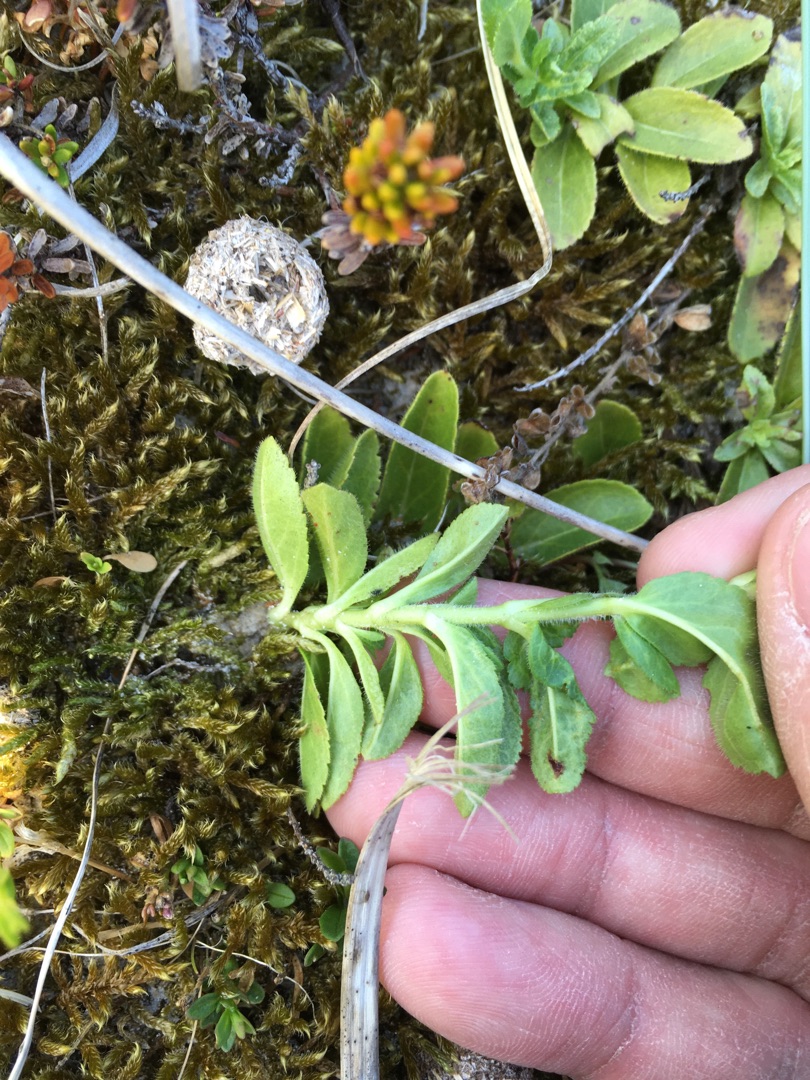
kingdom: Plantae
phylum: Tracheophyta
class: Magnoliopsida
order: Lamiales
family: Plantaginaceae
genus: Veronica
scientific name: Veronica officinalis
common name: Læge-ærenpris
